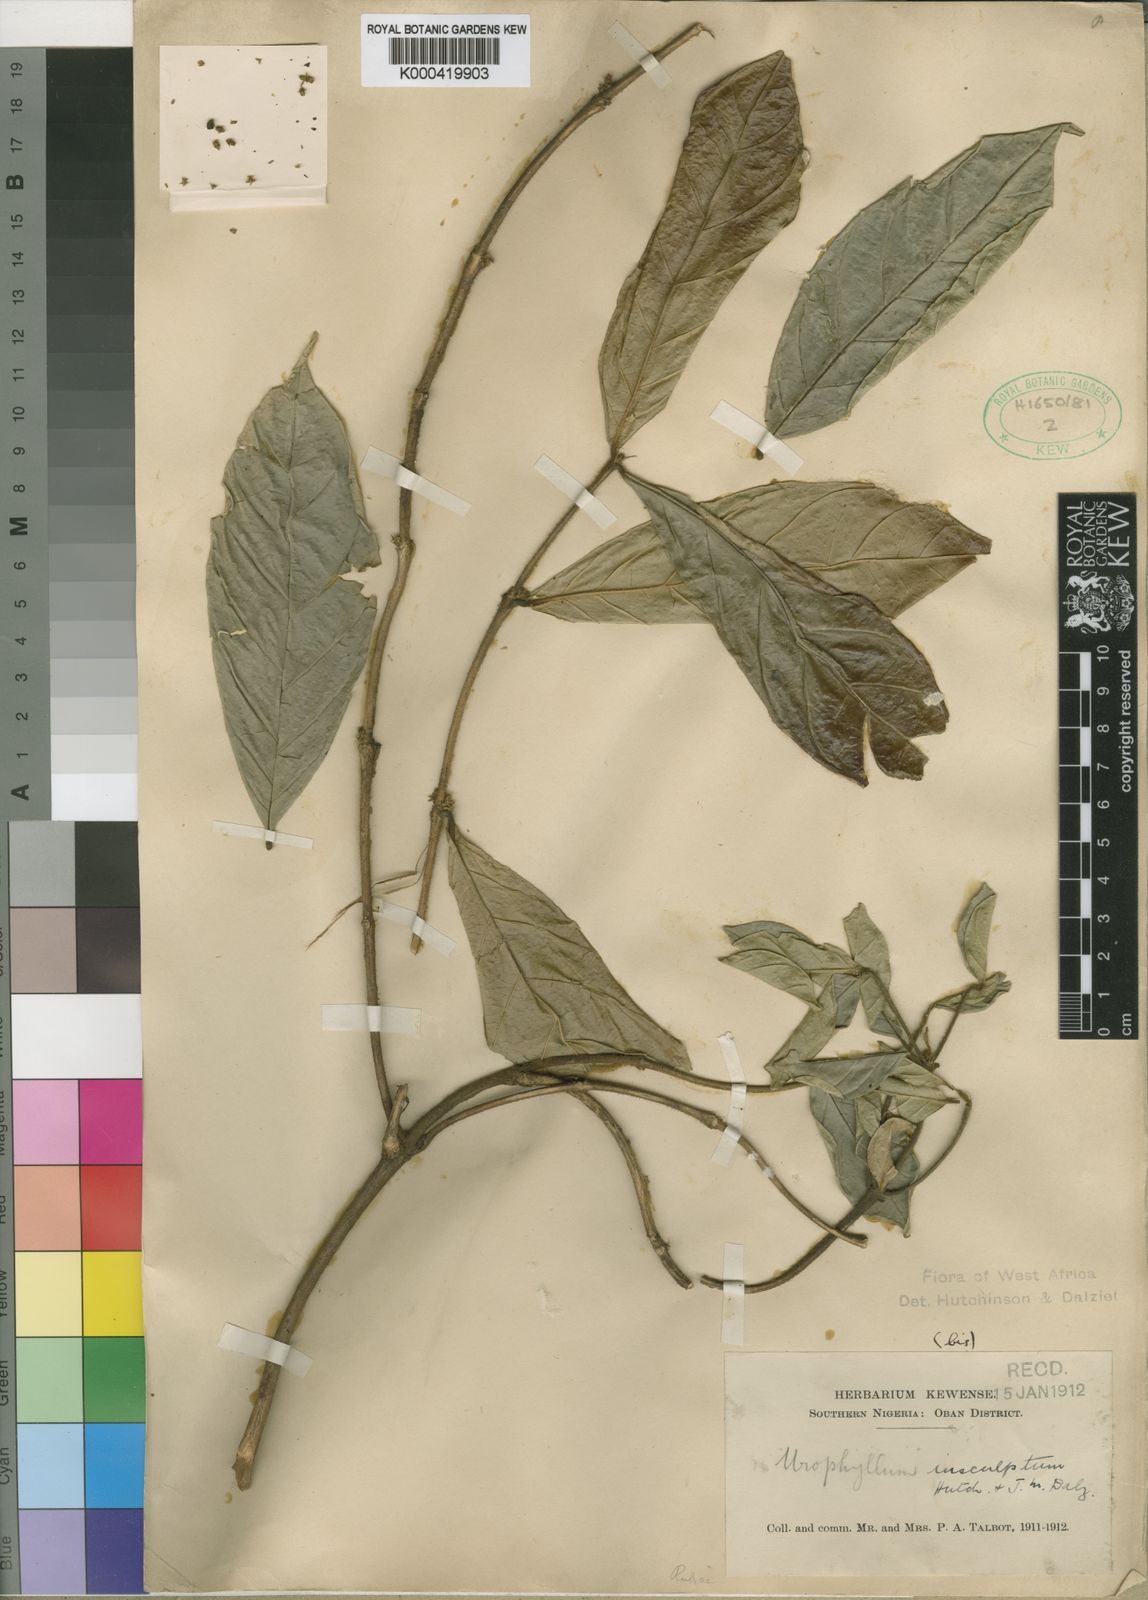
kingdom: Plantae
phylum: Tracheophyta
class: Magnoliopsida
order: Gentianales
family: Rubiaceae
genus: Empogona
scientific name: Empogona talbotii
